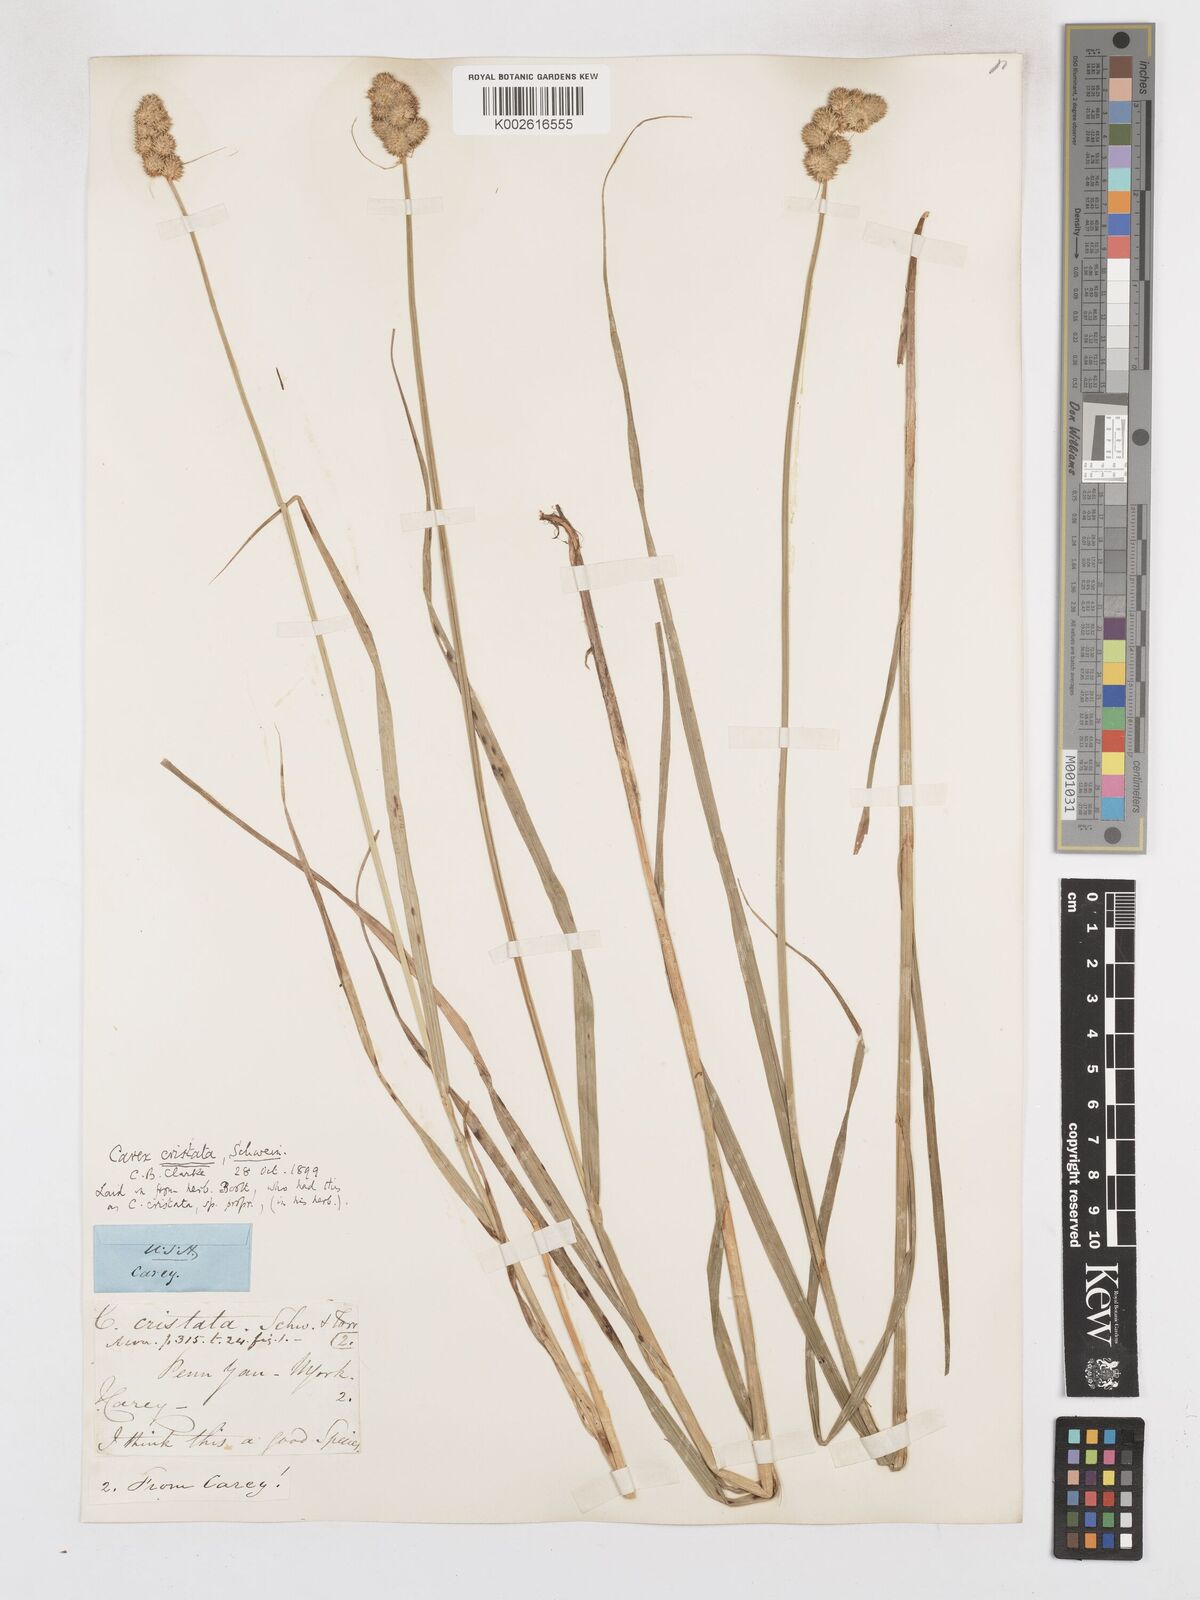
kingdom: Plantae
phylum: Tracheophyta
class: Liliopsida
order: Poales
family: Cyperaceae
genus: Carex
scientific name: Carex cristatella
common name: Crested oval sedge
